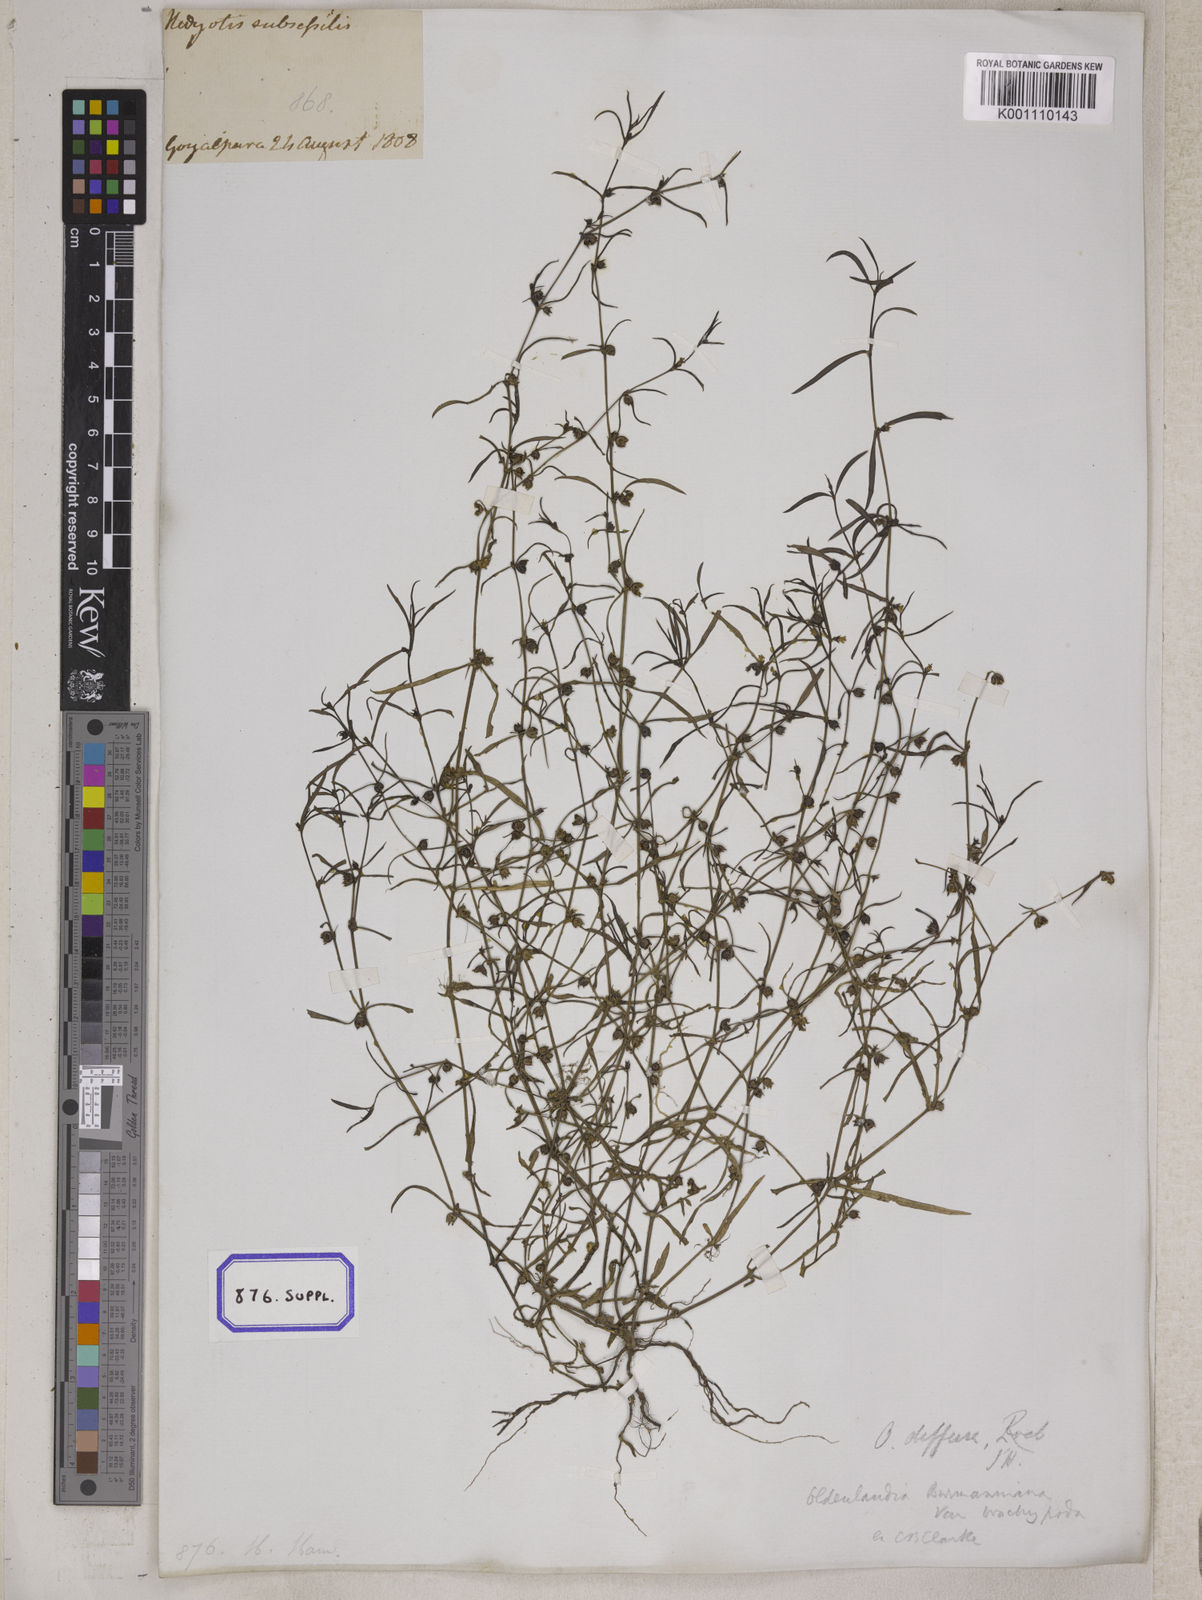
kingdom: Plantae
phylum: Tracheophyta
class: Magnoliopsida
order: Gentianales
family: Rubiaceae
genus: Hedyotis
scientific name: Hedyotis
